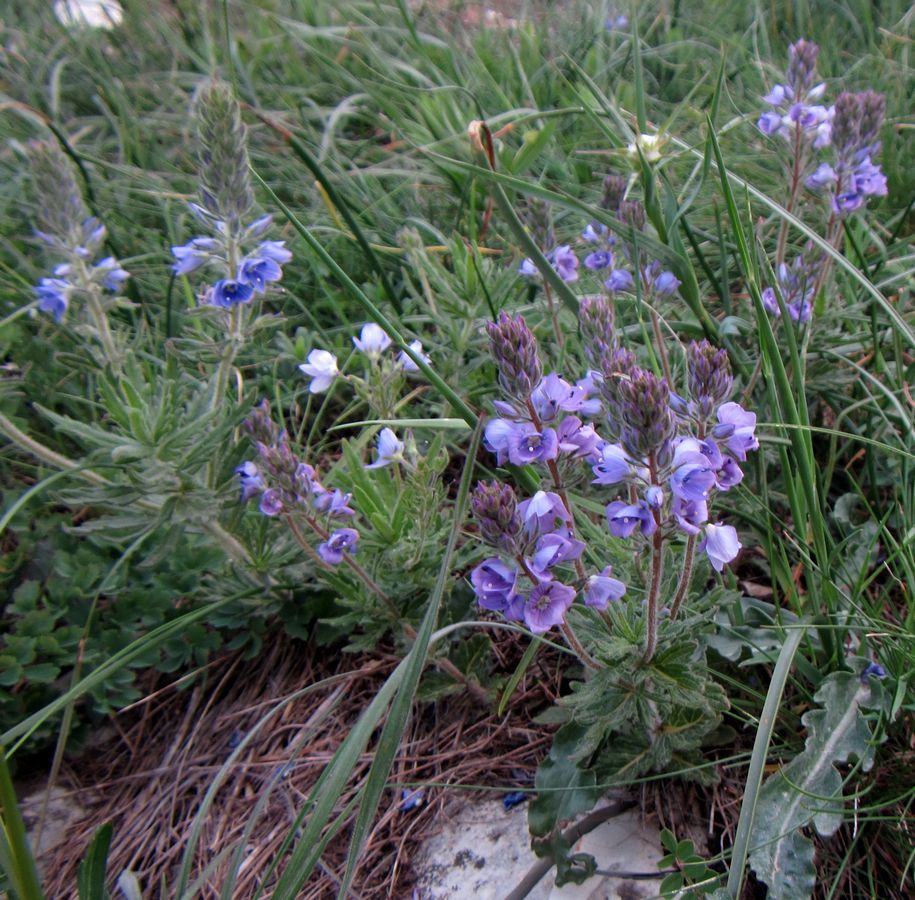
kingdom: Plantae
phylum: Tracheophyta
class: Magnoliopsida
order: Lamiales
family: Plantaginaceae
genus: Veronica
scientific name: Veronica prostrata
